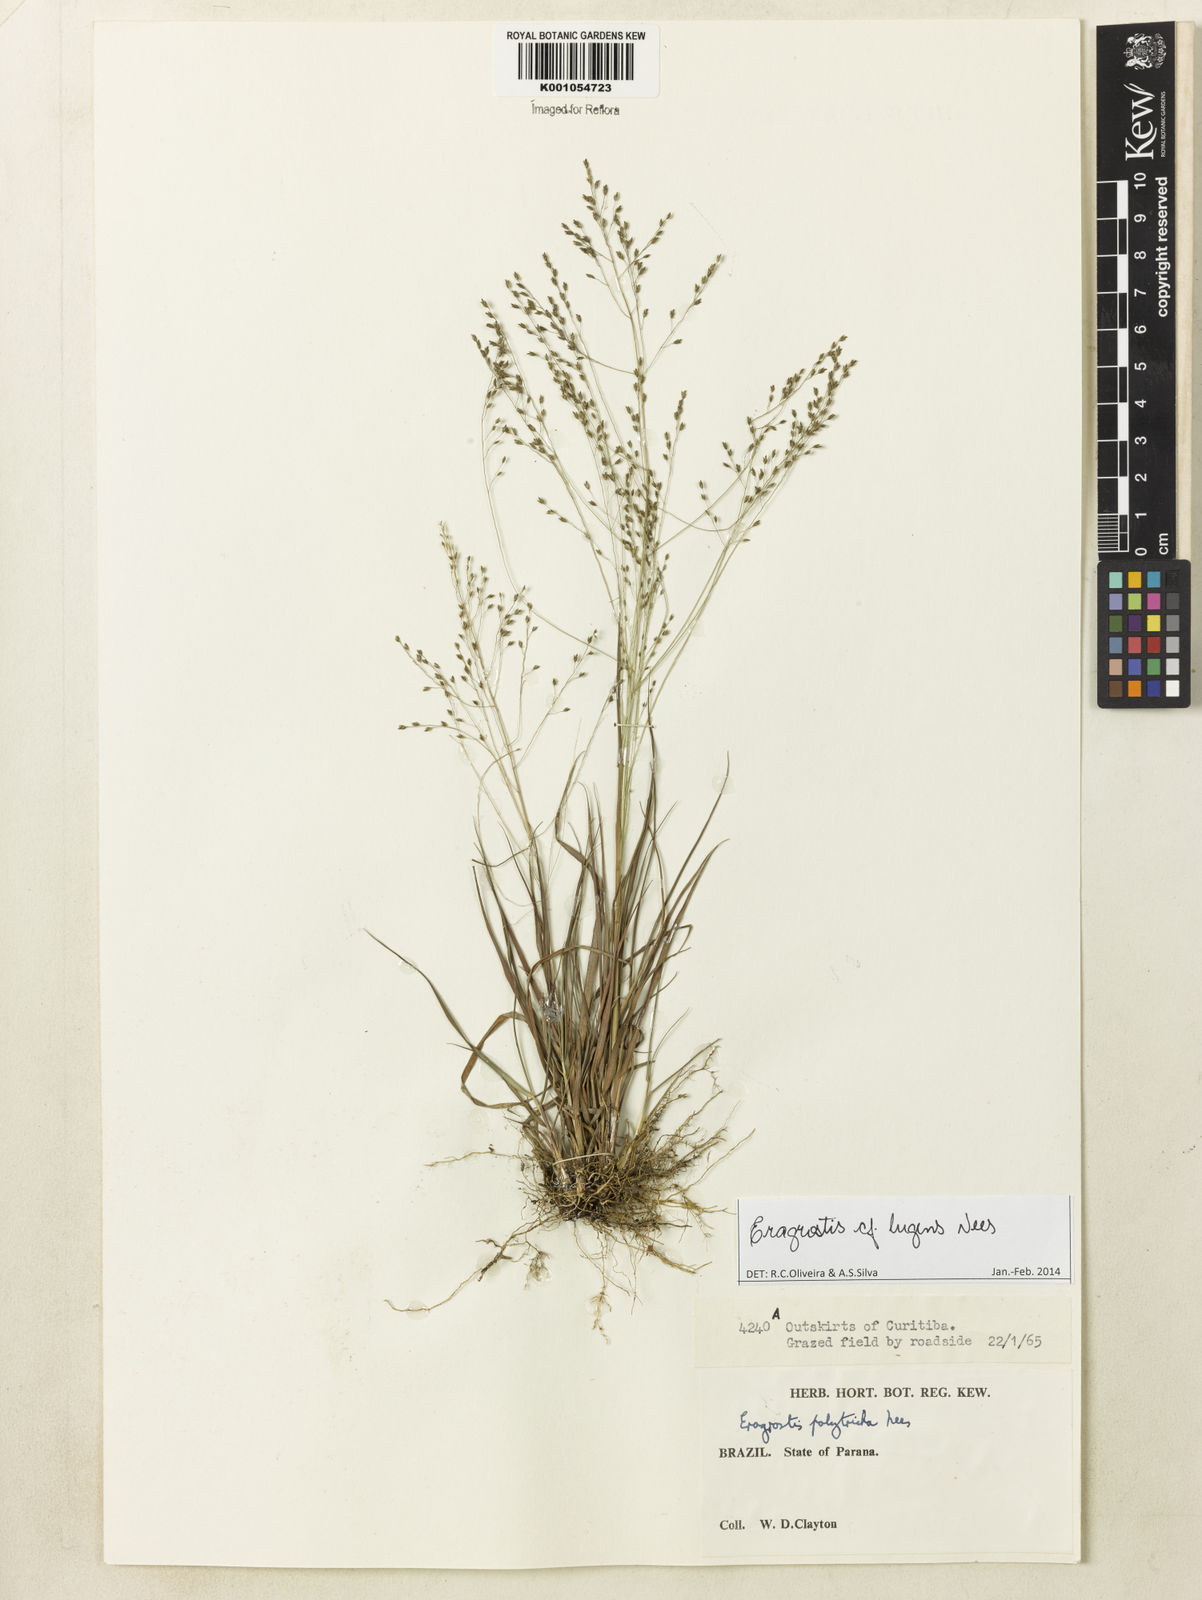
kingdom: Plantae
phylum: Tracheophyta
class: Liliopsida
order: Poales
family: Poaceae
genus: Eragrostis
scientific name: Eragrostis lugens
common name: Mourning love grass
